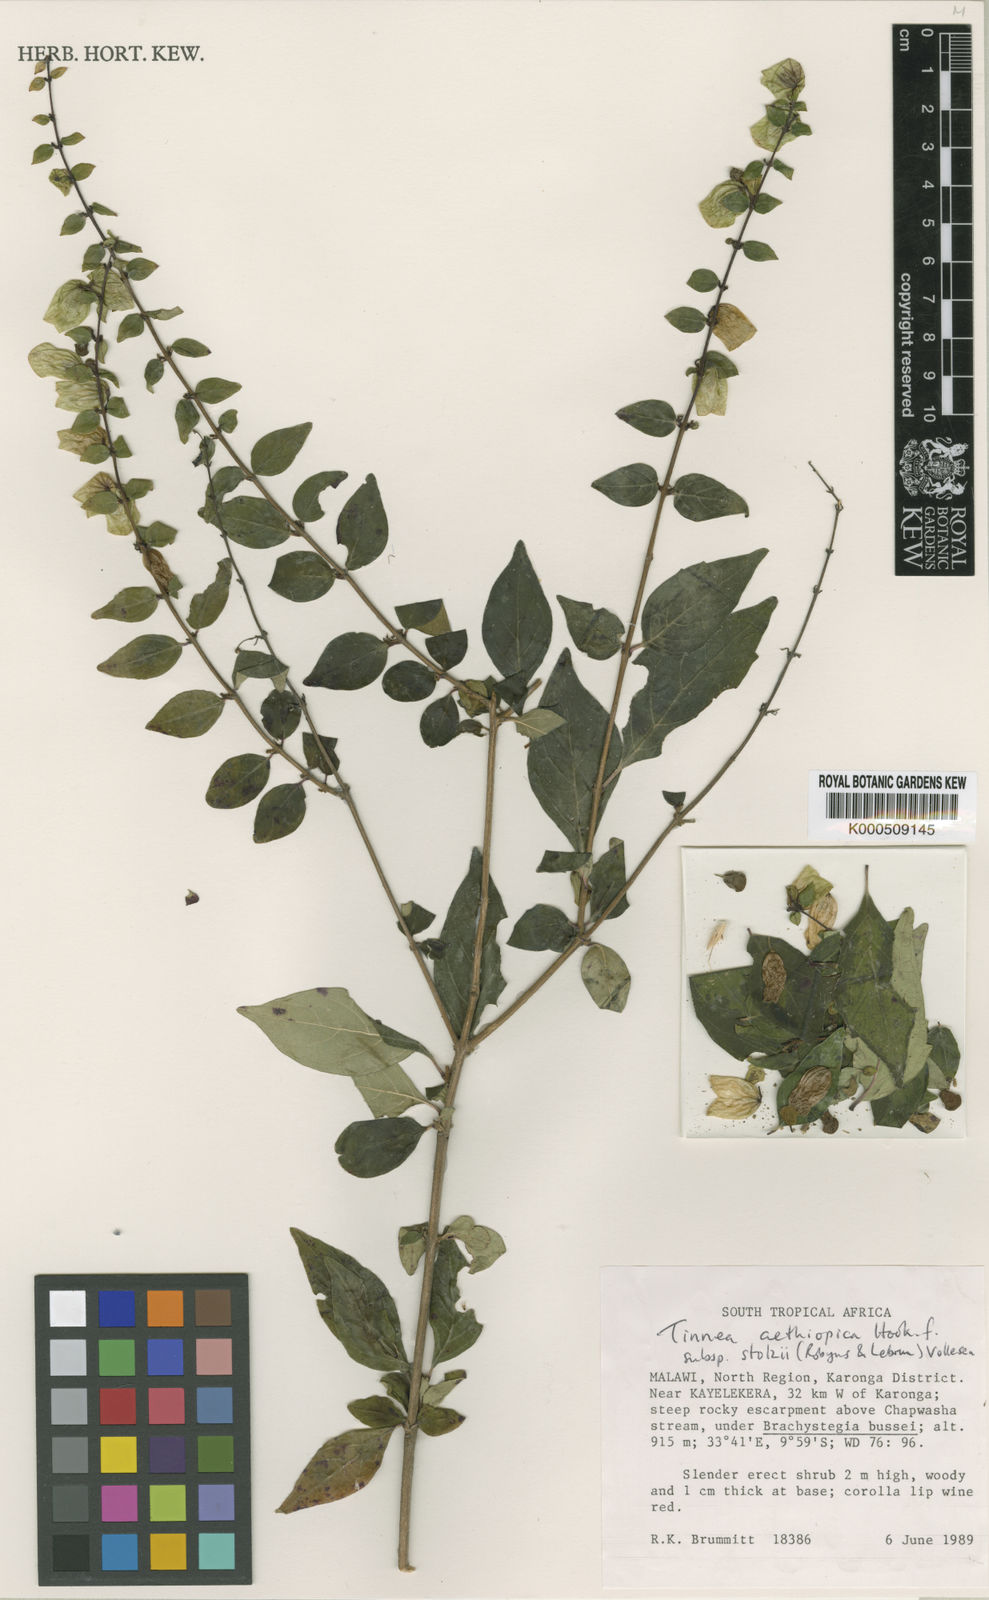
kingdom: Plantae
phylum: Tracheophyta
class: Magnoliopsida
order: Lamiales
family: Lamiaceae
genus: Tinnea
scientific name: Tinnea aethiopica
